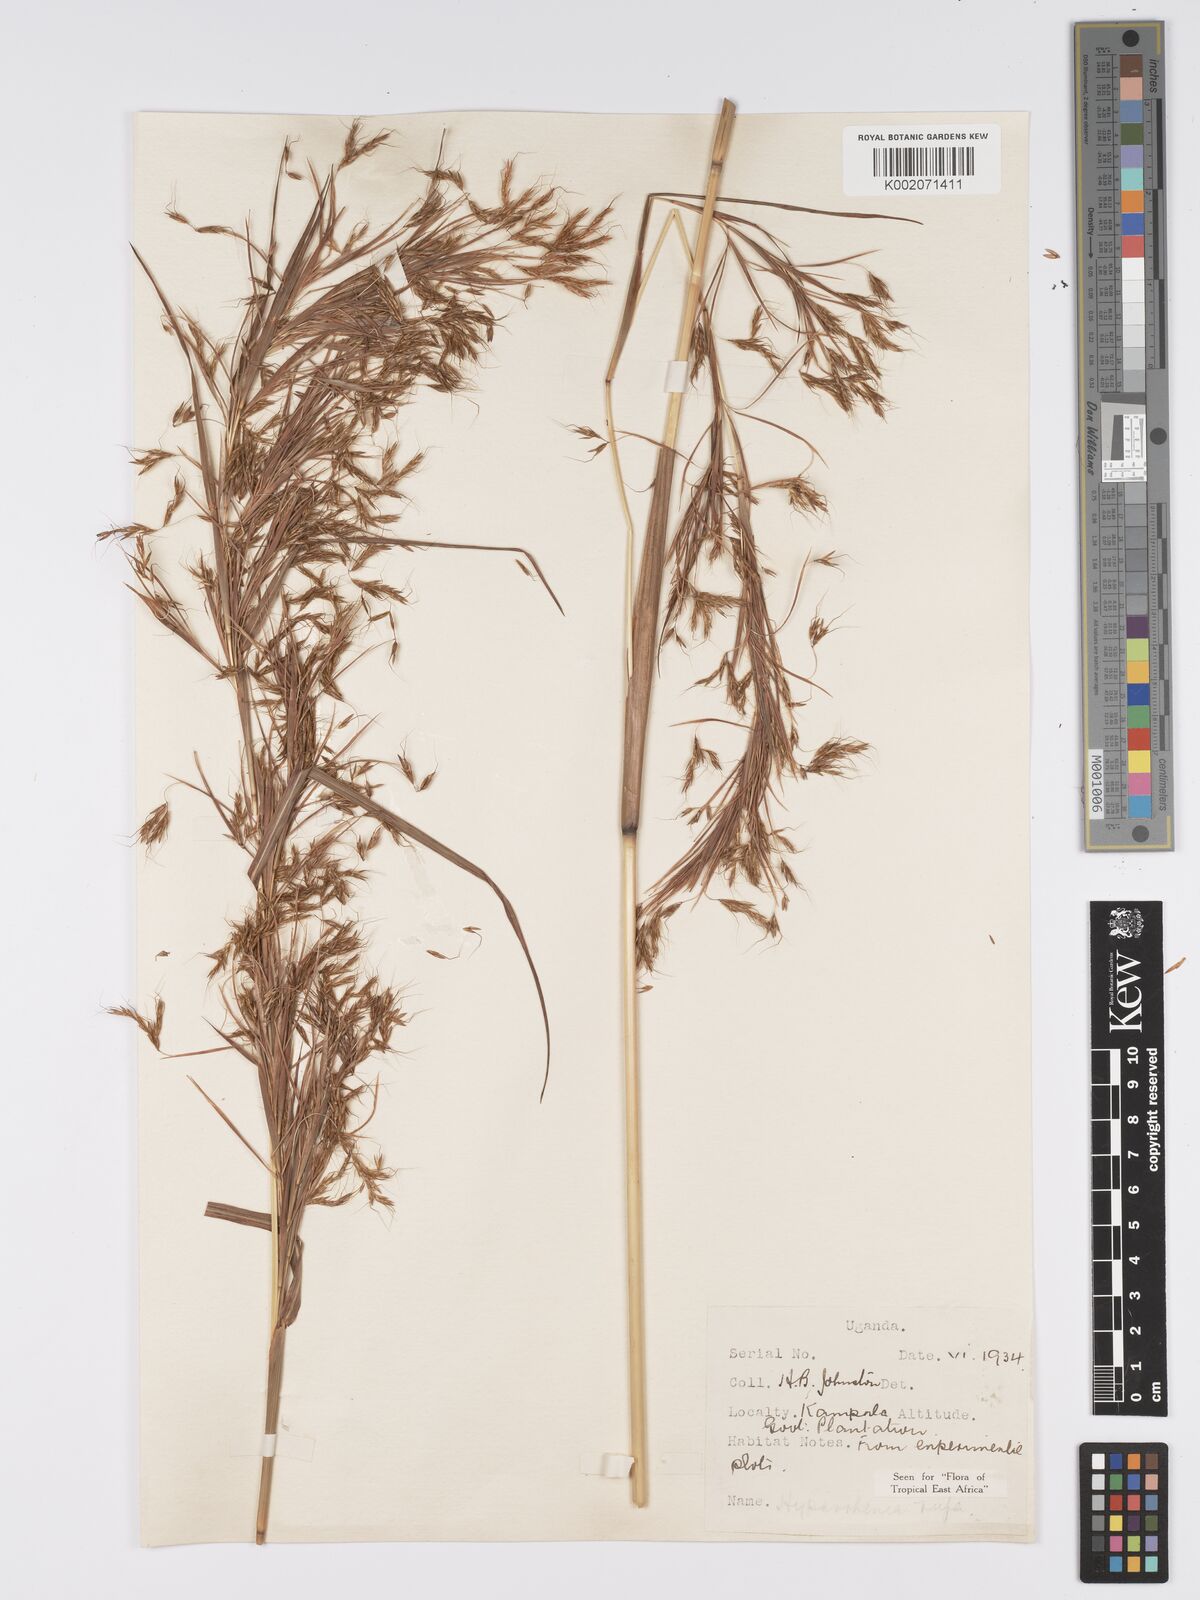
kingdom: Plantae
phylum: Tracheophyta
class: Liliopsida
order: Poales
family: Poaceae
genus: Hyparrhenia
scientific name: Hyparrhenia rufa
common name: Jaraguagrass
